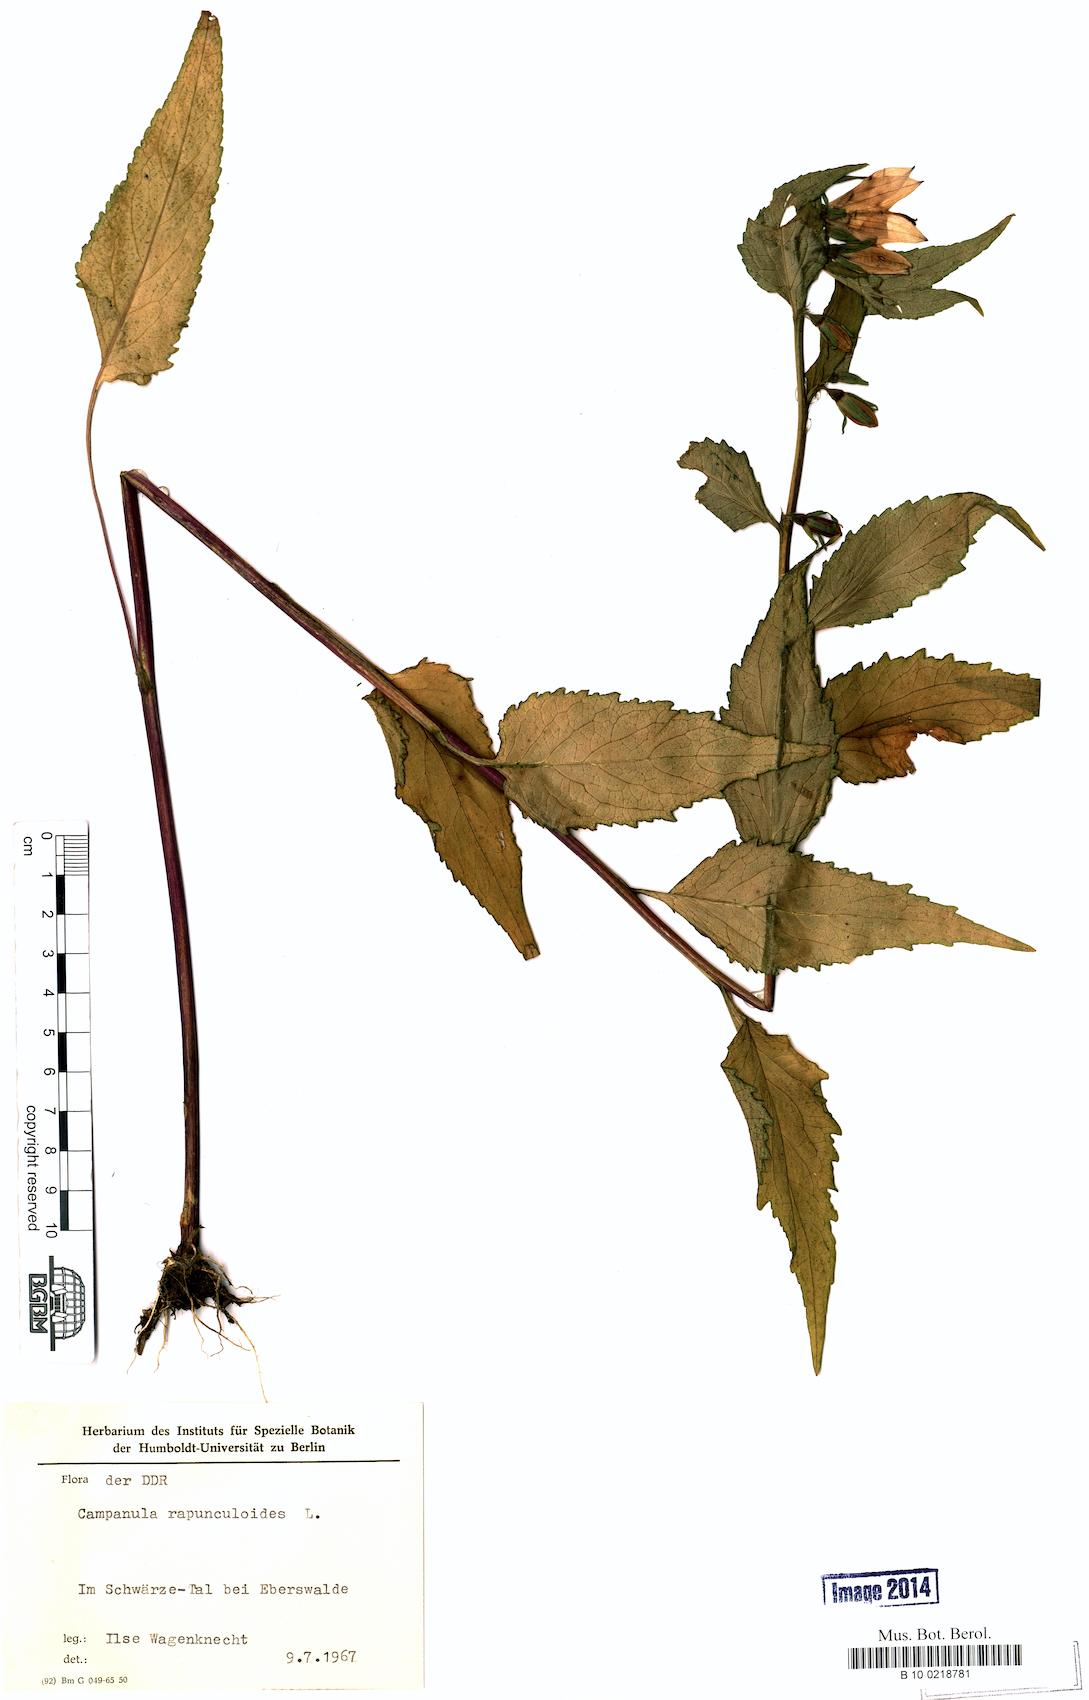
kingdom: Plantae
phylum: Tracheophyta
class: Magnoliopsida
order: Asterales
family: Campanulaceae
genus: Campanula
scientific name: Campanula rapunculoides
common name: Creeping bellflower
